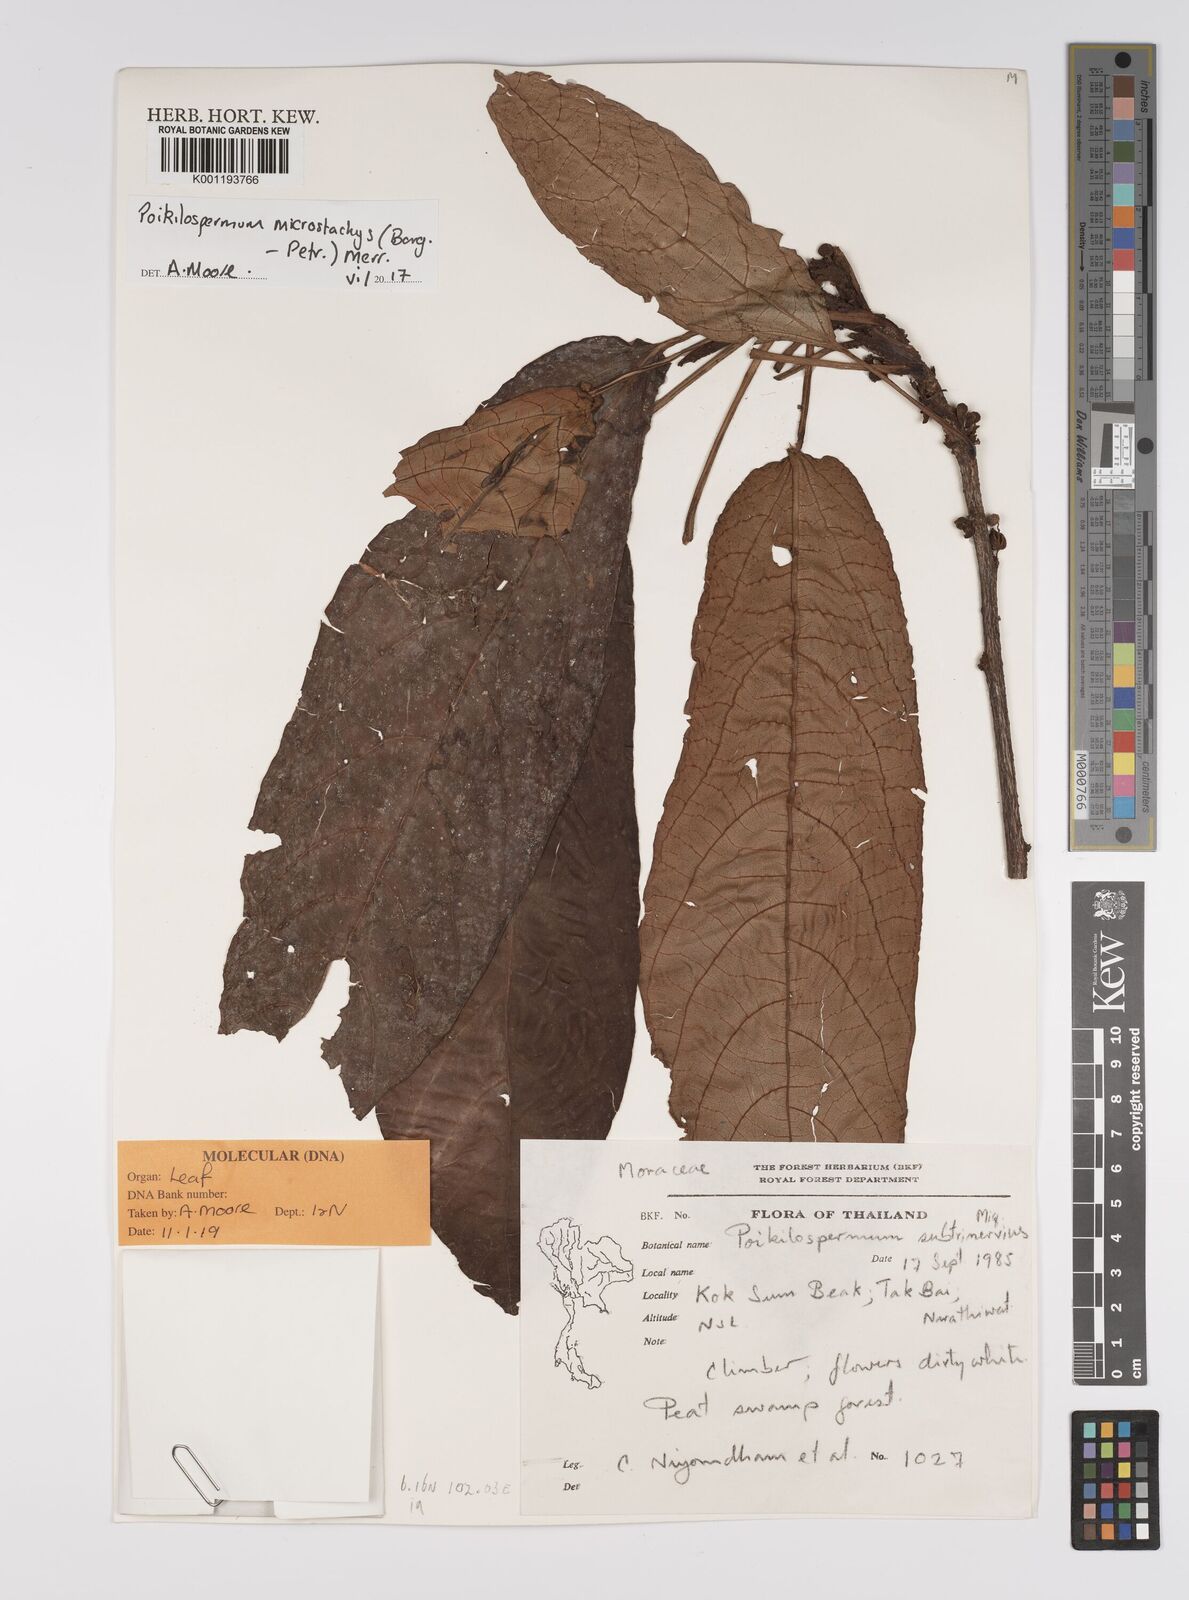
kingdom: Plantae
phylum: Tracheophyta
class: Magnoliopsida
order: Rosales
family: Urticaceae
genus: Poikilospermum
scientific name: Poikilospermum microstachys
